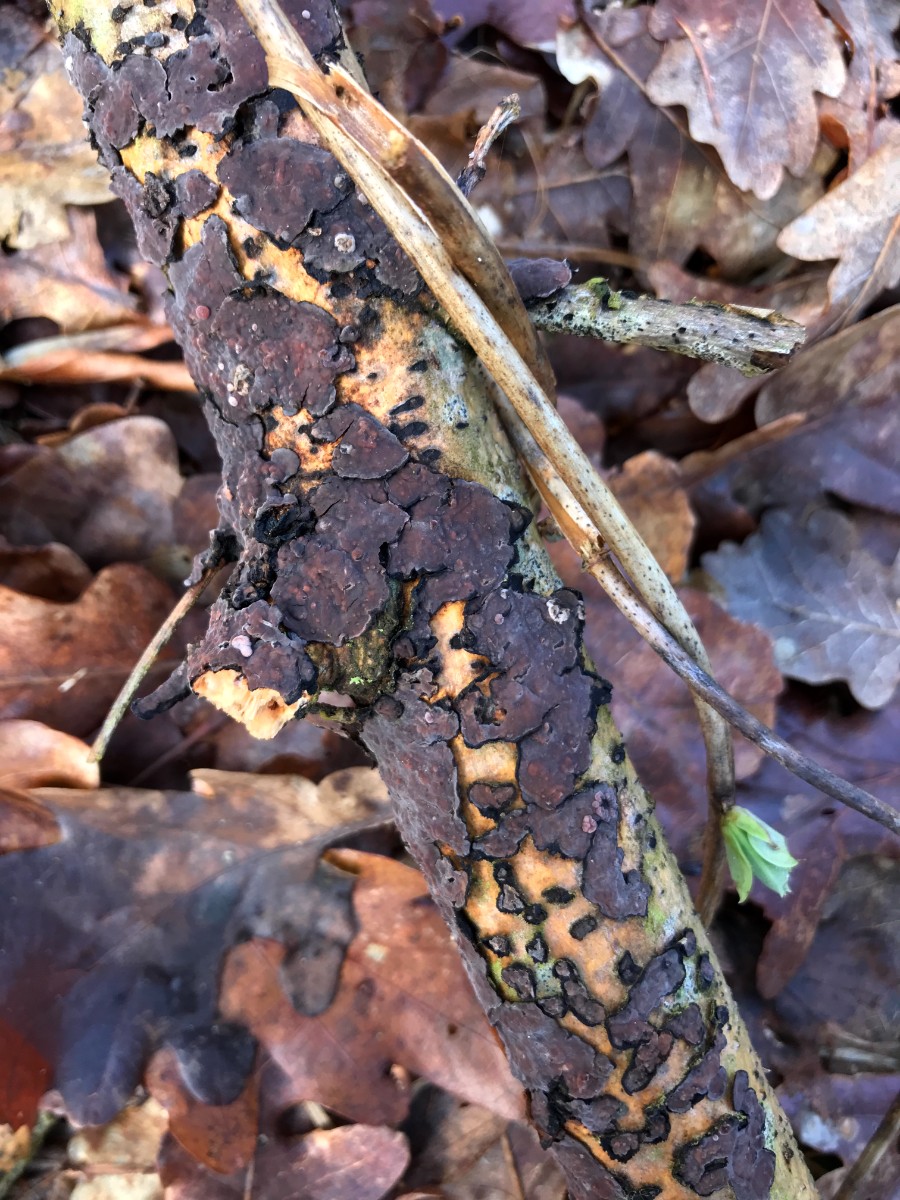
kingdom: Fungi
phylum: Basidiomycota
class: Agaricomycetes
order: Russulales
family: Peniophoraceae
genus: Peniophora
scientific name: Peniophora quercina
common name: ege-voksskind
